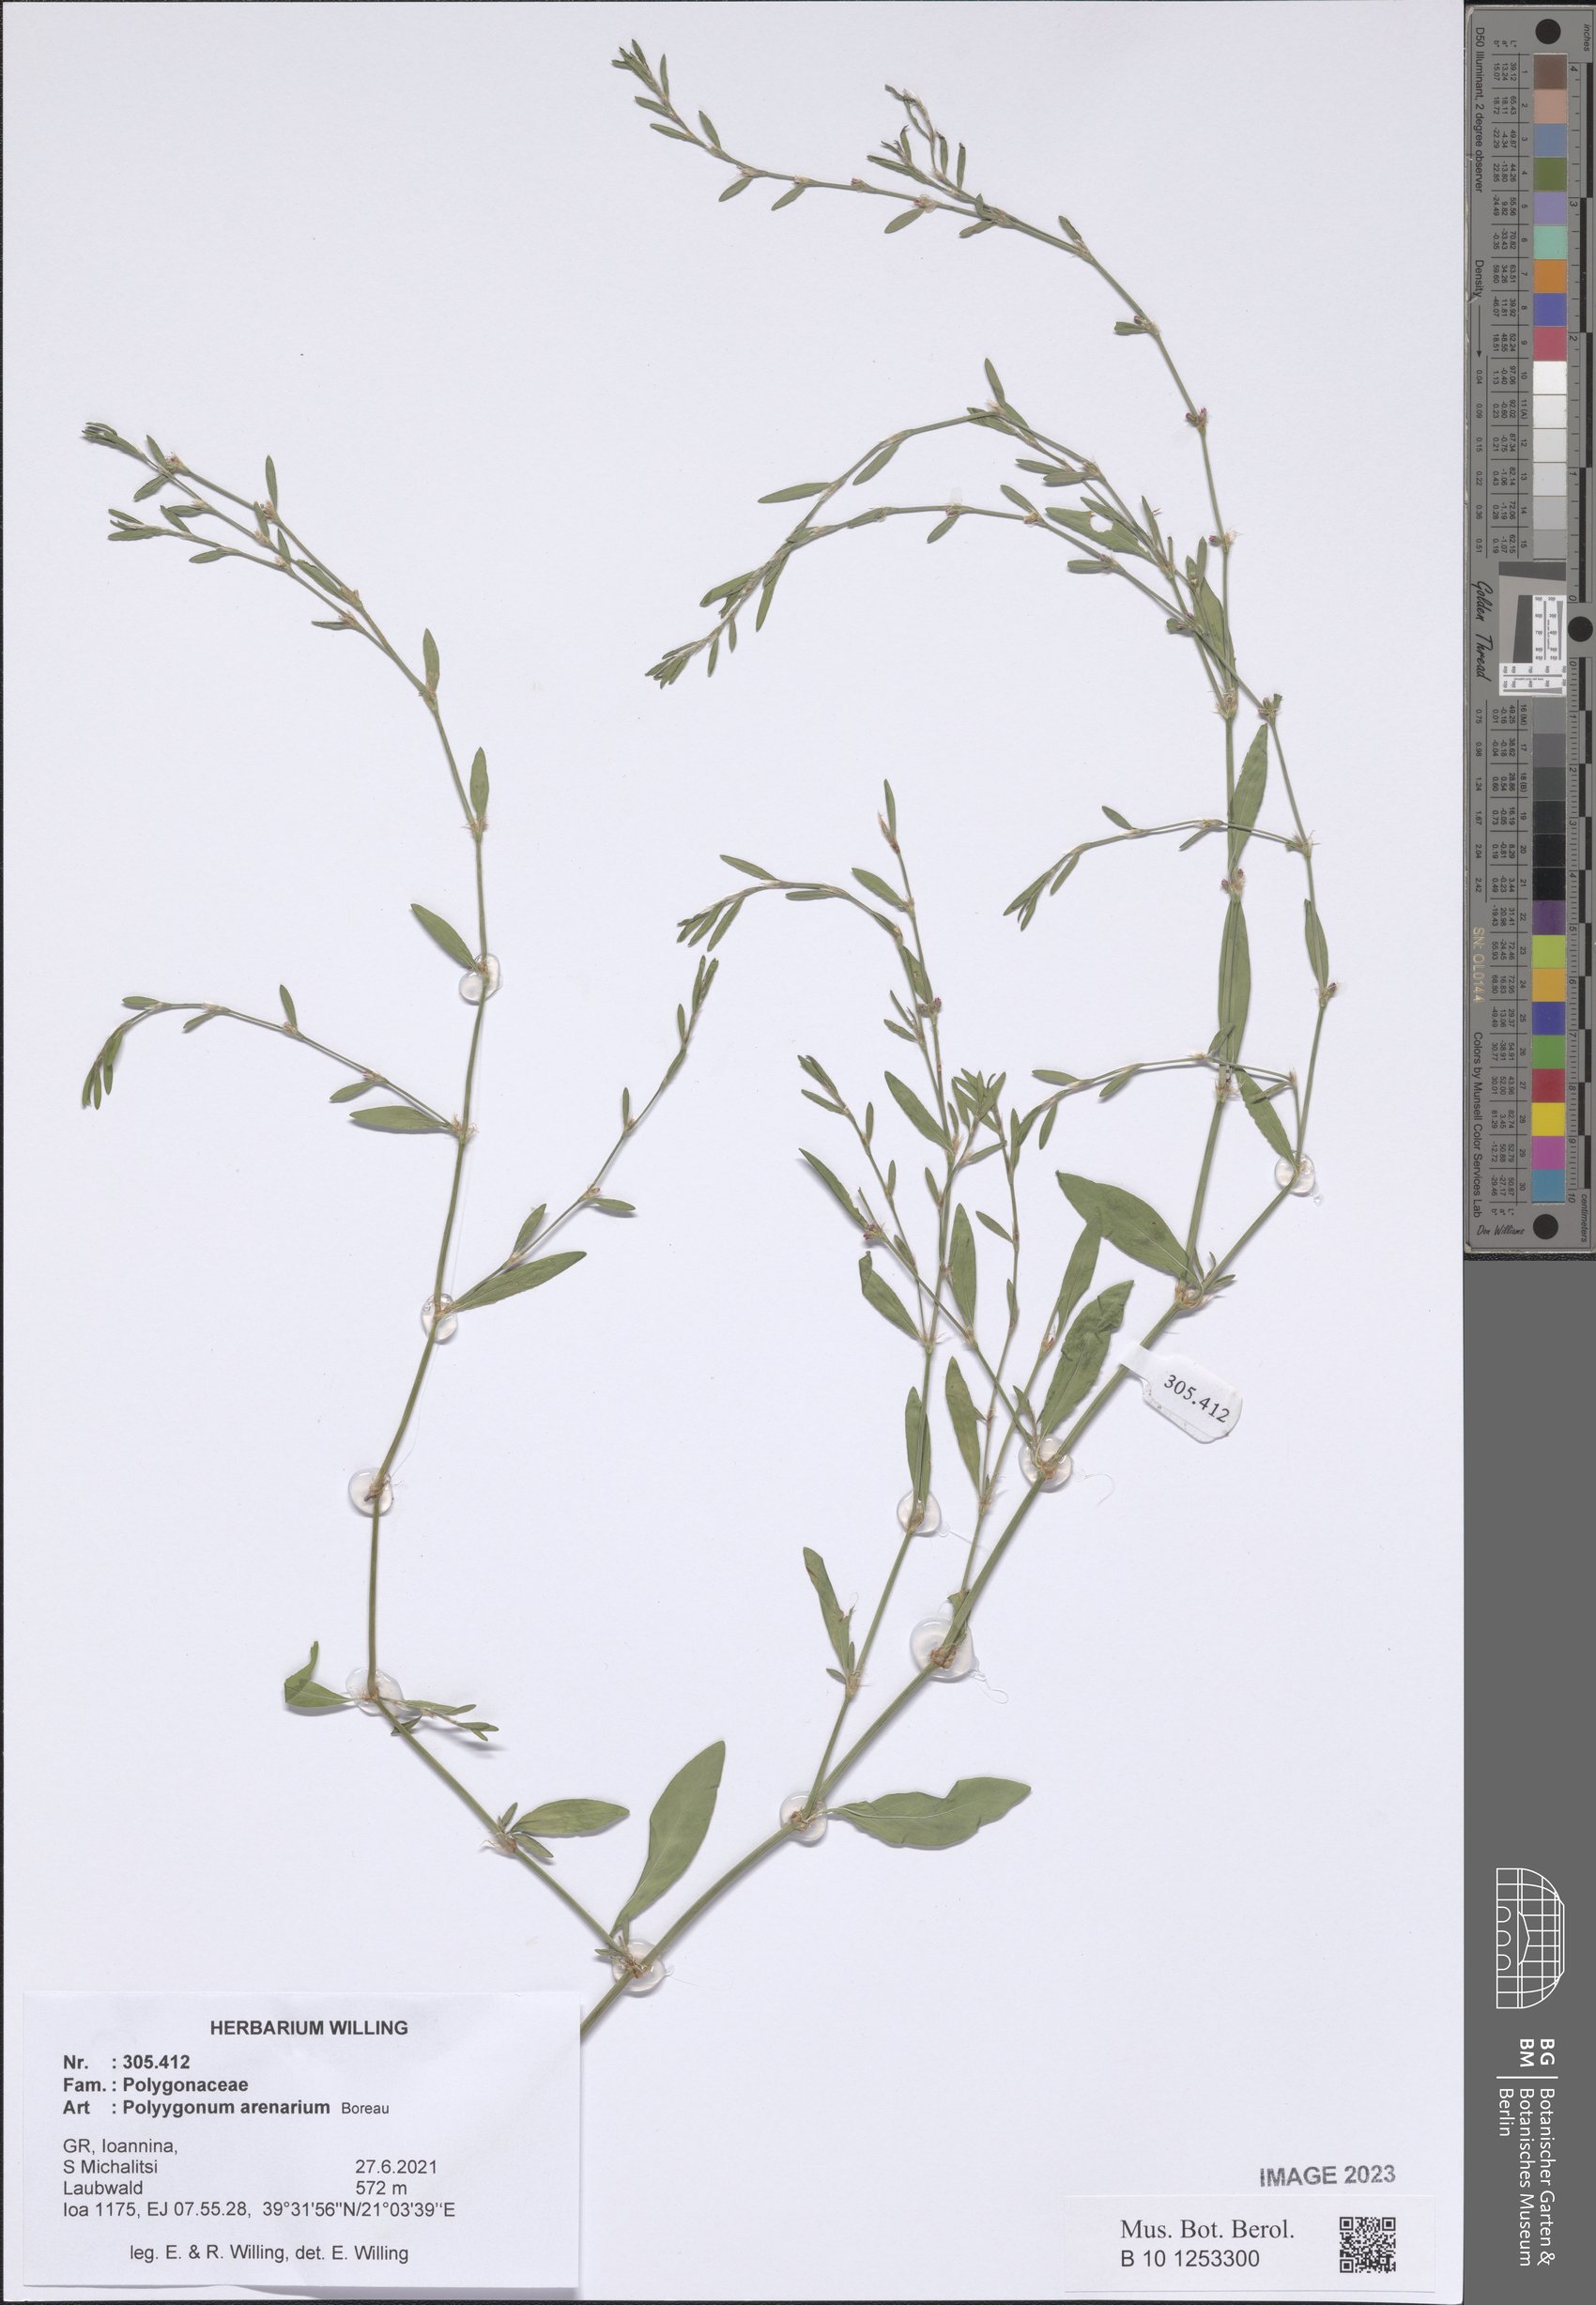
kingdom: Plantae
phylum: Tracheophyta
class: Magnoliopsida
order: Caryophyllales
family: Polygonaceae
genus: Polygonum
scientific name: Polygonum arenarium
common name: Lesser red-knotgrass
